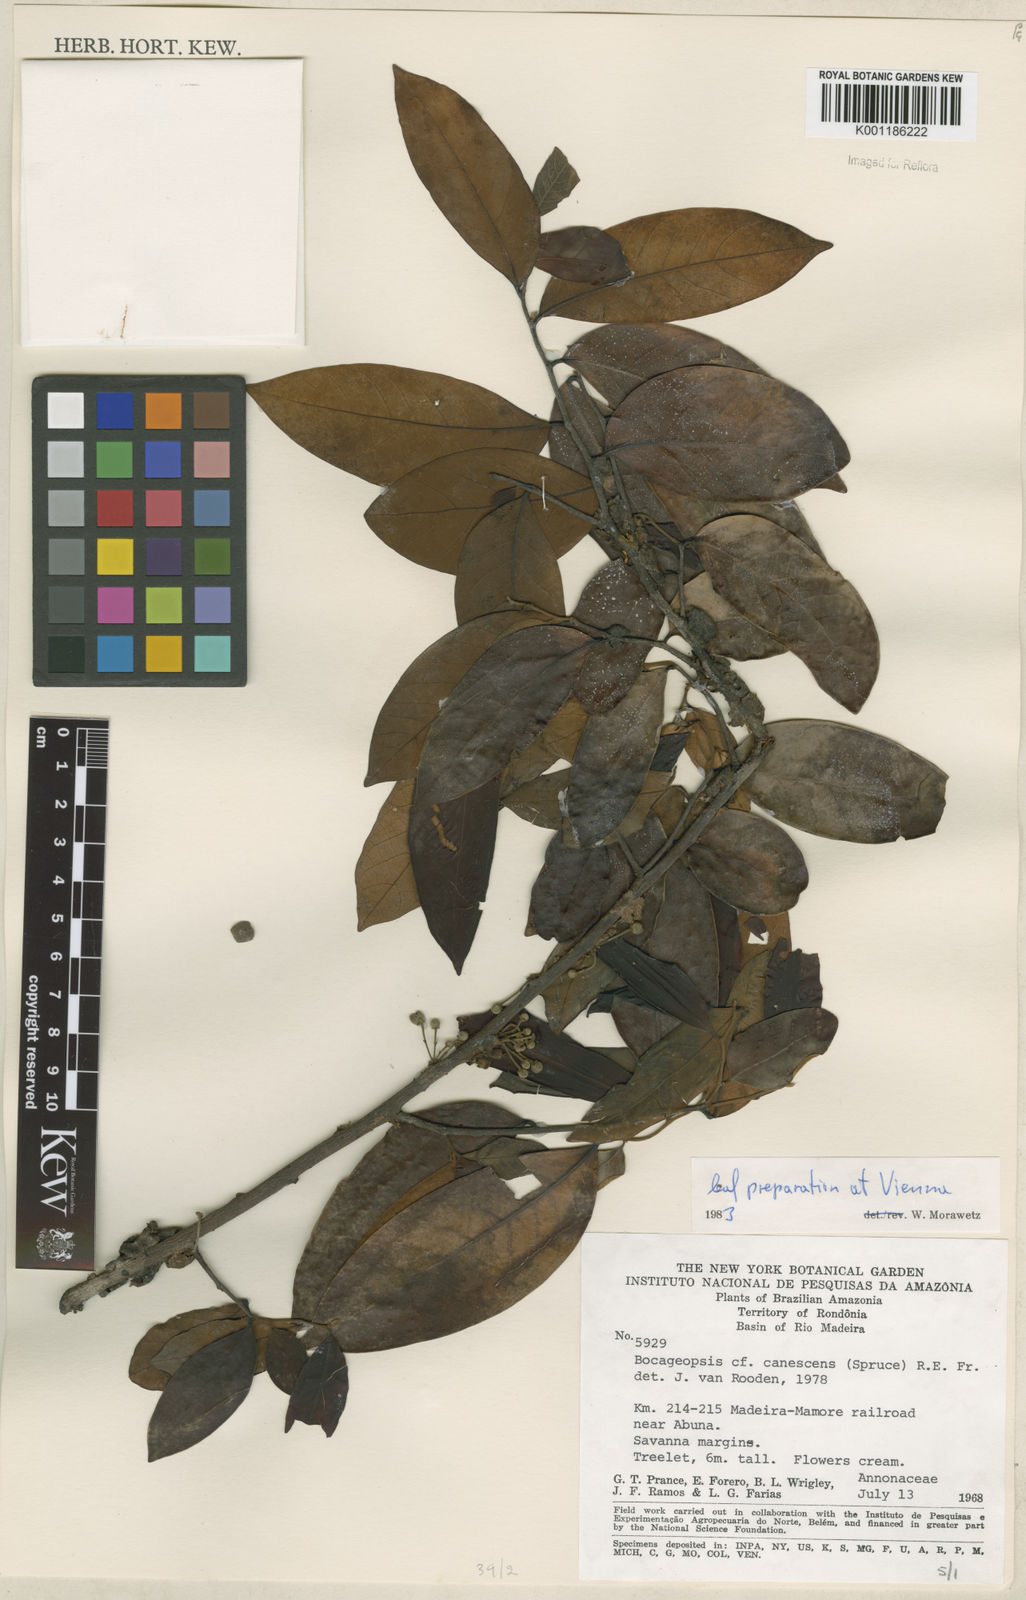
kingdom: Plantae
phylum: Tracheophyta
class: Magnoliopsida
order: Magnoliales
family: Annonaceae
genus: Bocageopsis
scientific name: Bocageopsis canescens
